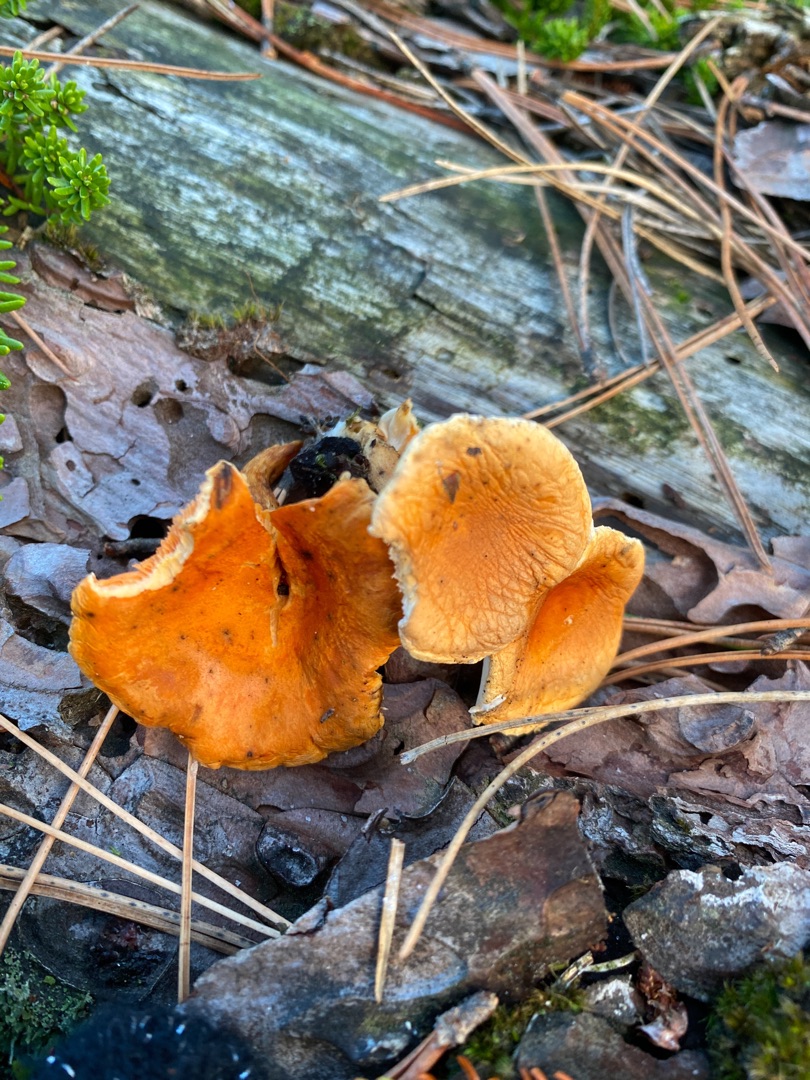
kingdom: Fungi
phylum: Basidiomycota
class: Agaricomycetes
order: Boletales
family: Hygrophoropsidaceae
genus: Hygrophoropsis
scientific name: Hygrophoropsis aurantiaca
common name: Almindelig orangekantarel
